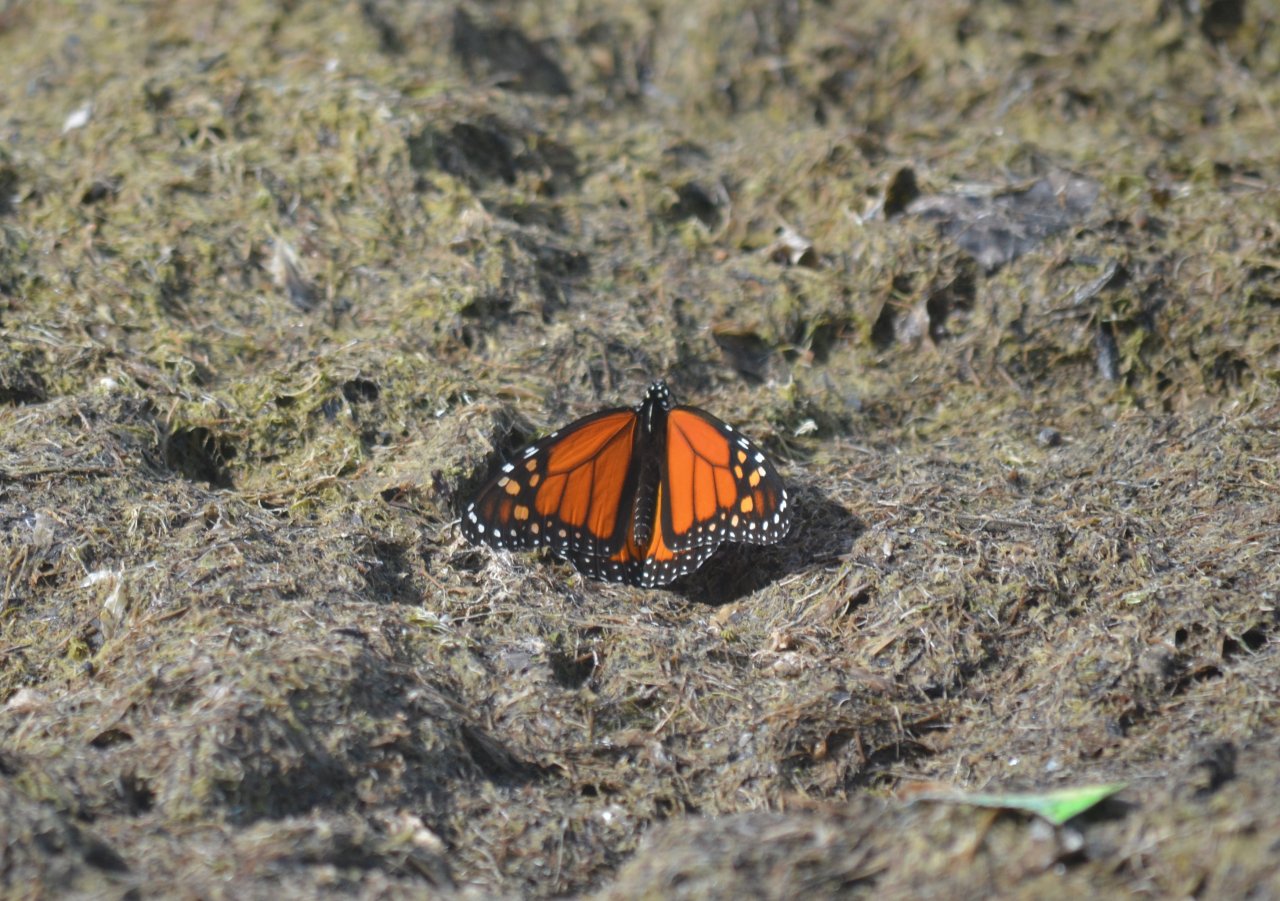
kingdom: Animalia
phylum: Arthropoda
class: Insecta
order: Lepidoptera
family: Nymphalidae
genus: Danaus
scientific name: Danaus plexippus
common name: Monarch
